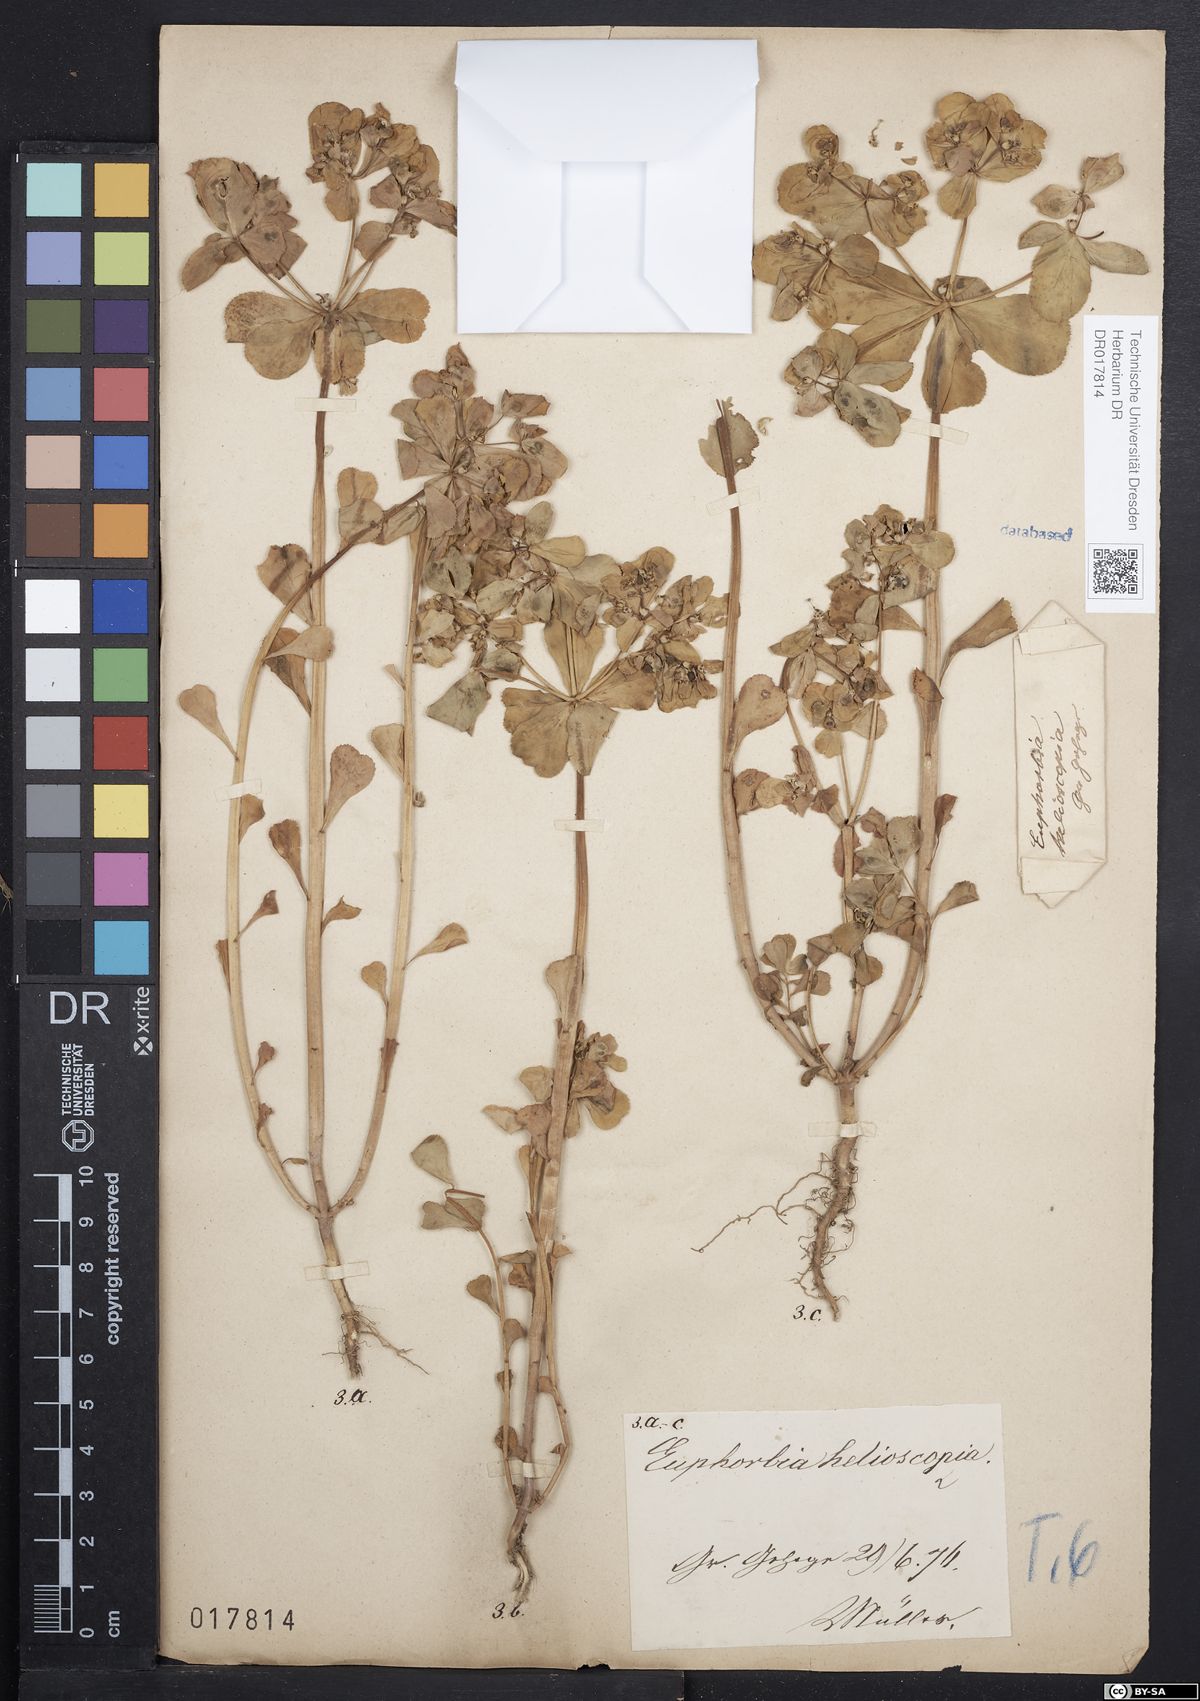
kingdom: Plantae
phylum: Tracheophyta
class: Magnoliopsida
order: Malpighiales
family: Euphorbiaceae
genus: Euphorbia
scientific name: Euphorbia helioscopia
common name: Sun spurge
